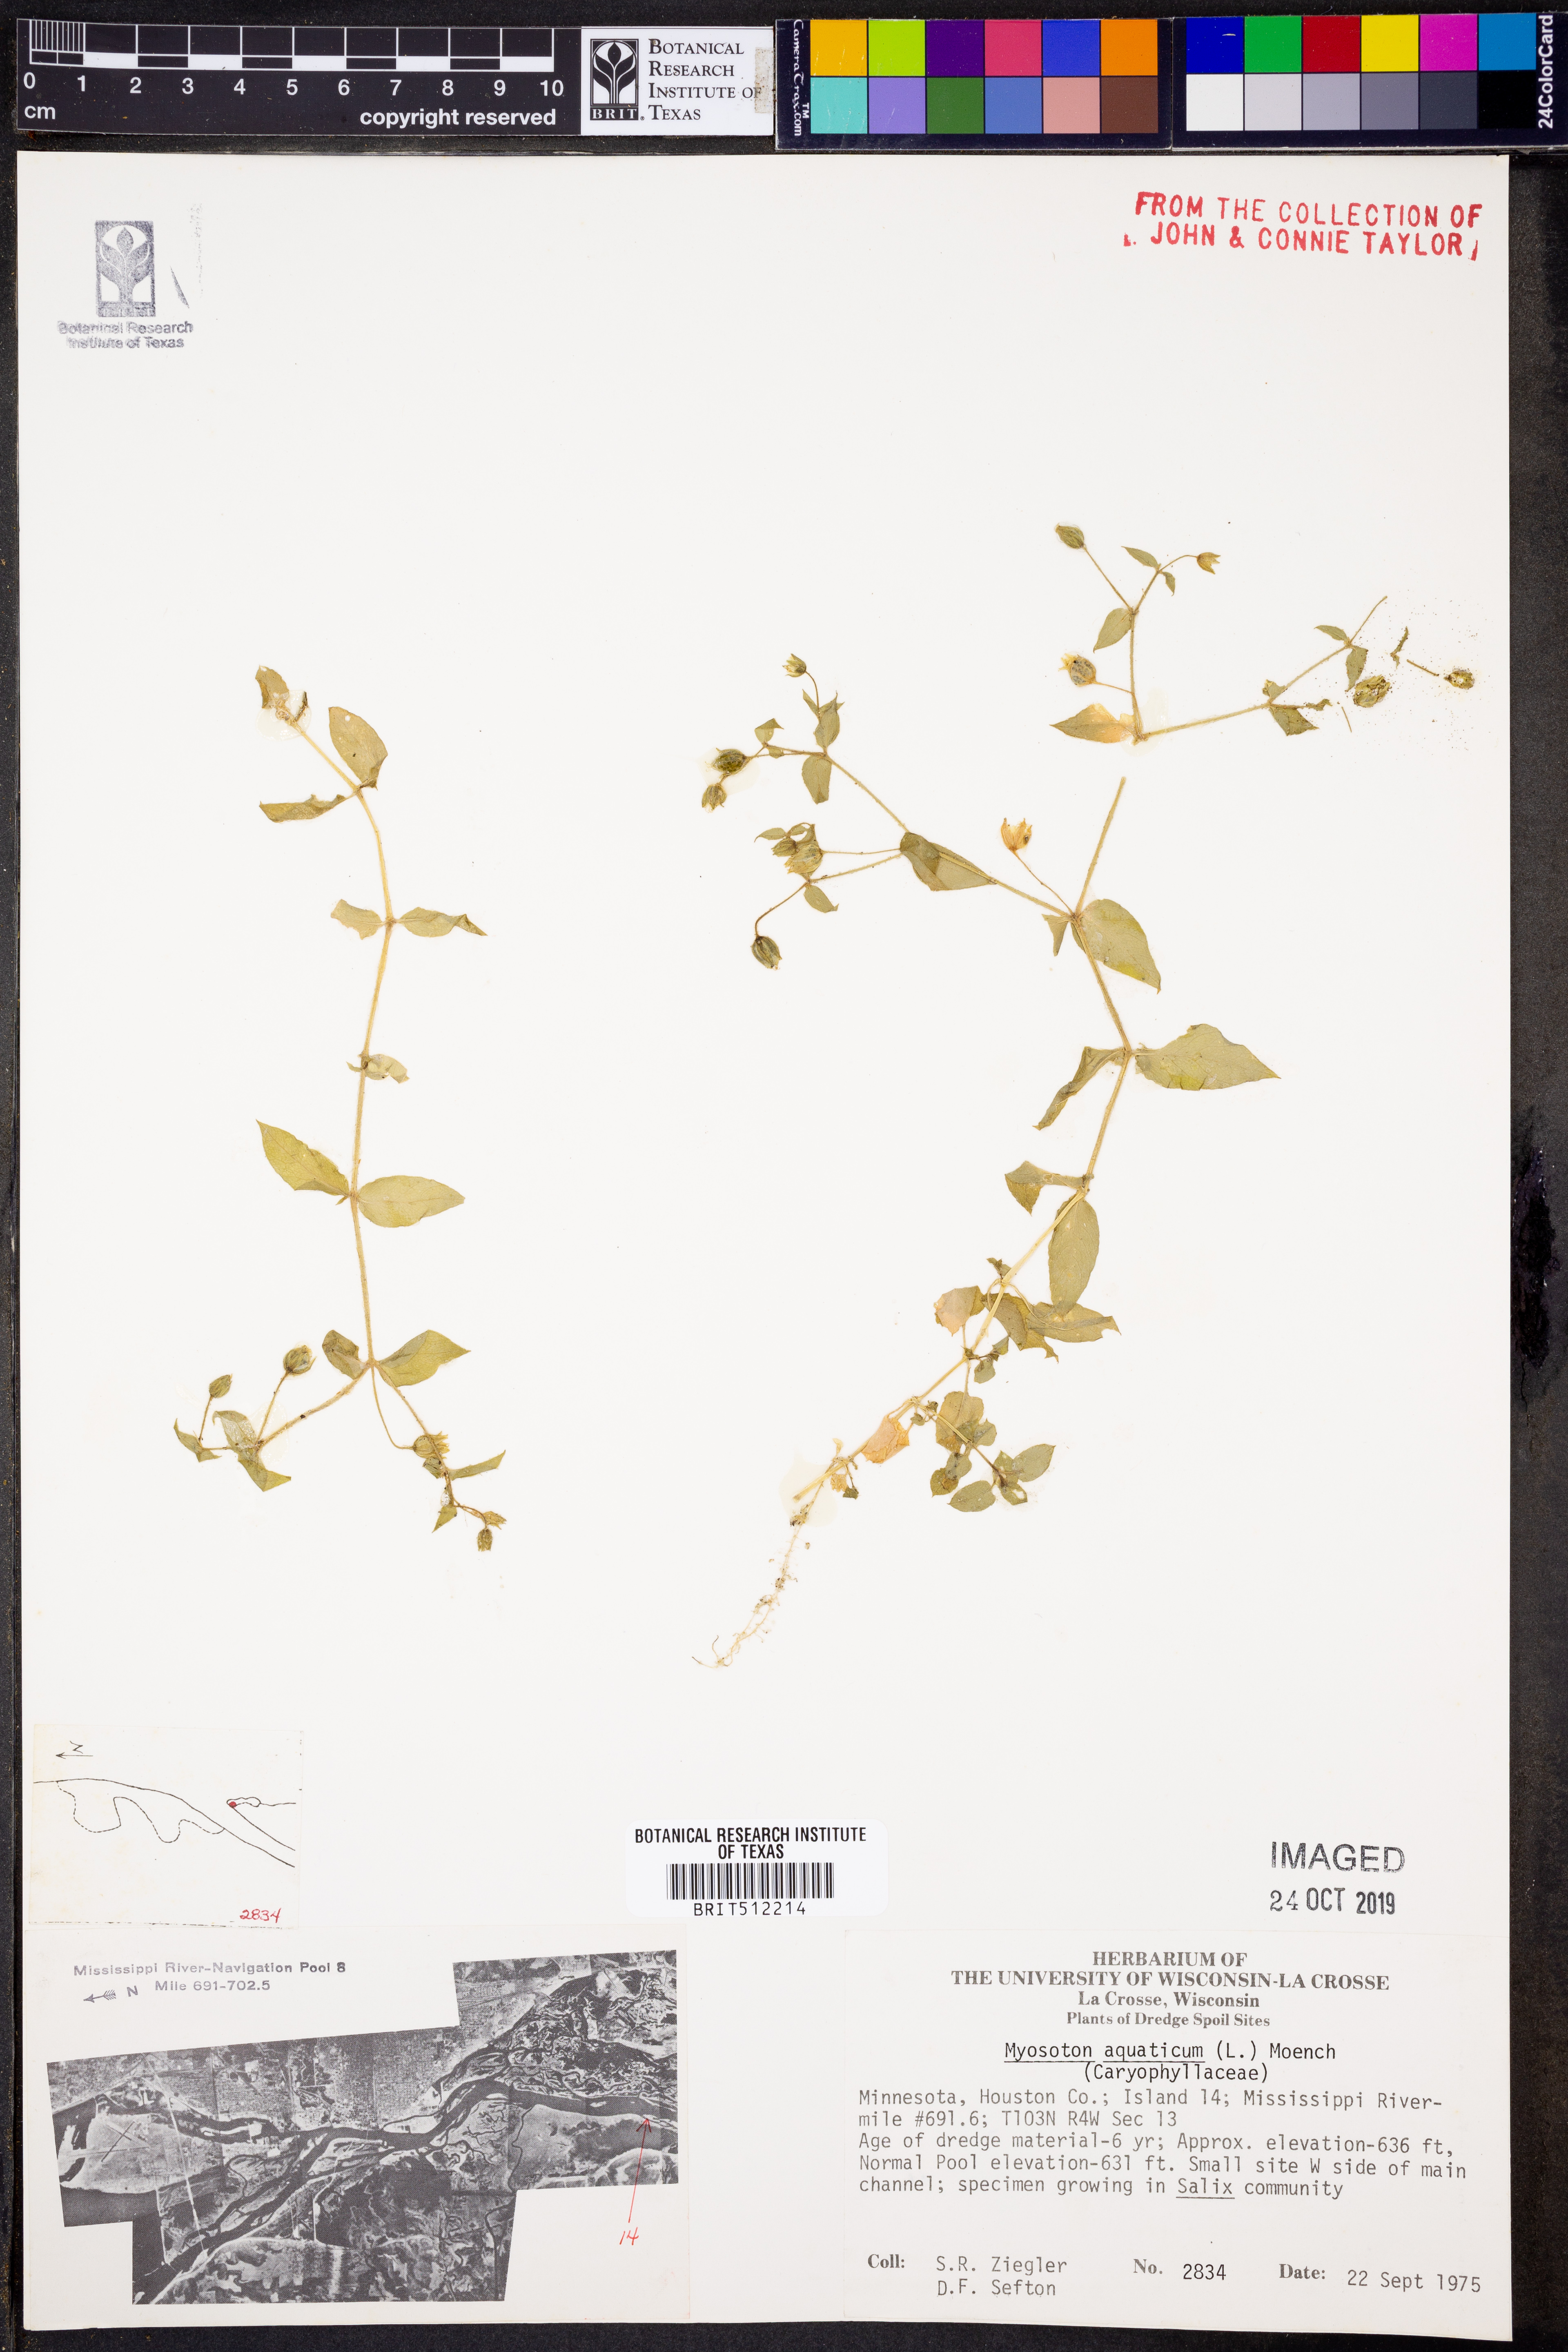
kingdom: Plantae
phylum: Tracheophyta
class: Magnoliopsida
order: Caryophyllales
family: Caryophyllaceae
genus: Stellaria
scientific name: Stellaria aquatica
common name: Water chickweed
